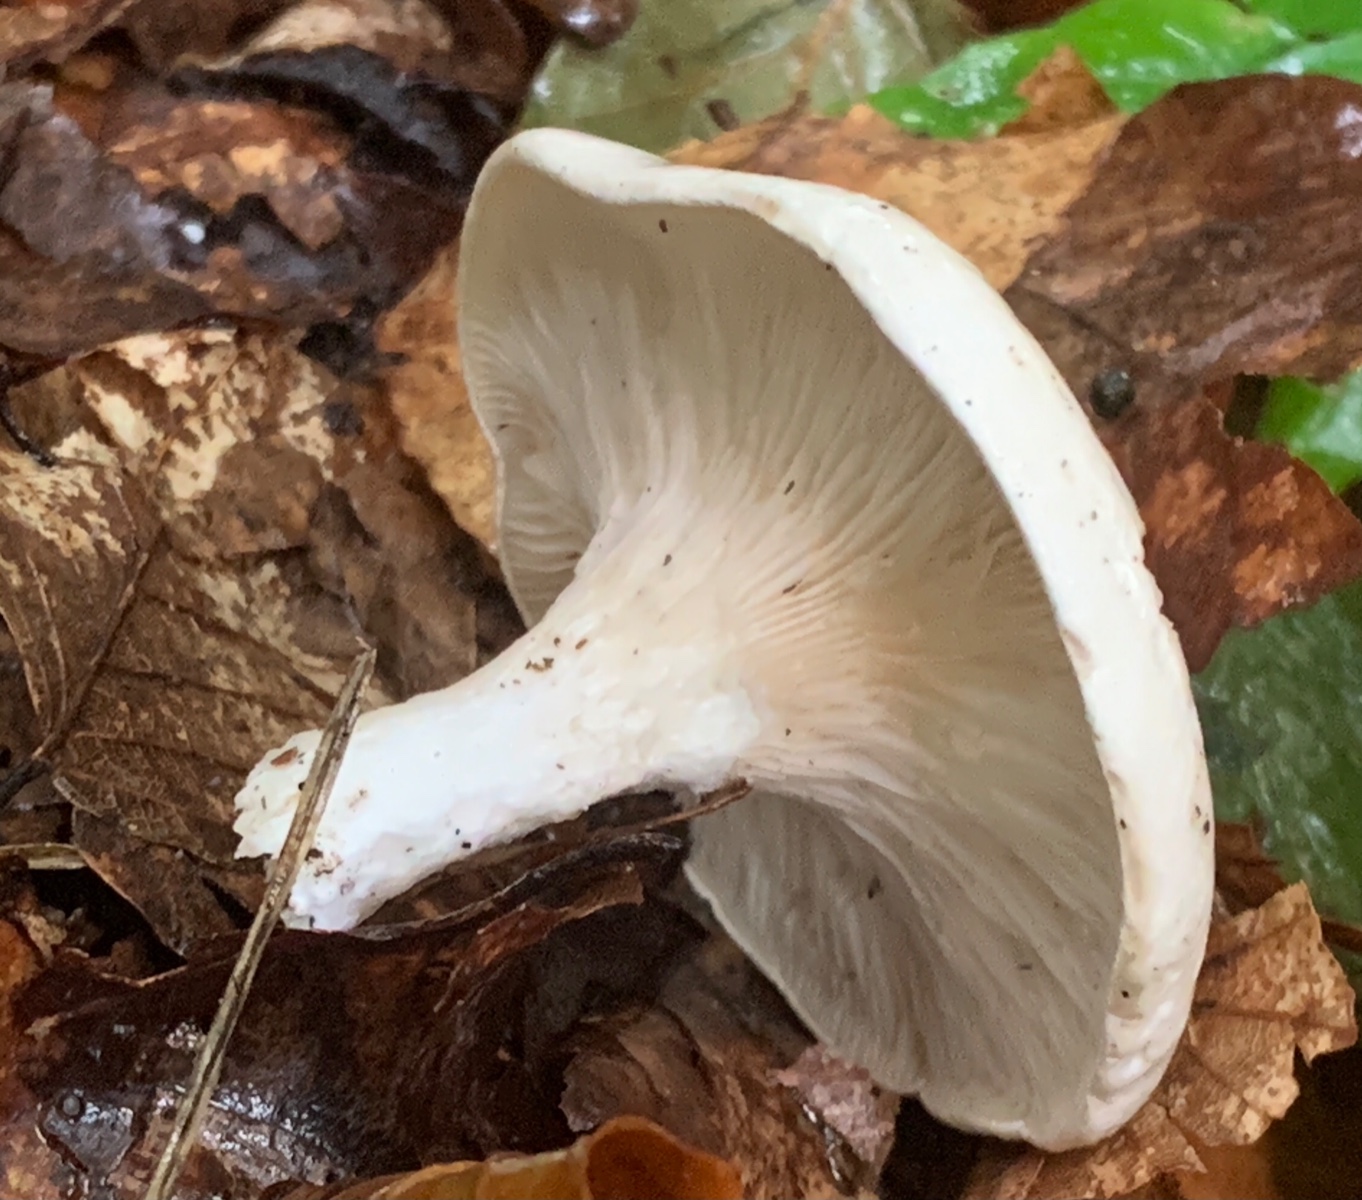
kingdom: Fungi
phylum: Basidiomycota
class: Agaricomycetes
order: Agaricales
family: Entolomataceae
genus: Clitopilus
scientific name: Clitopilus prunulus
